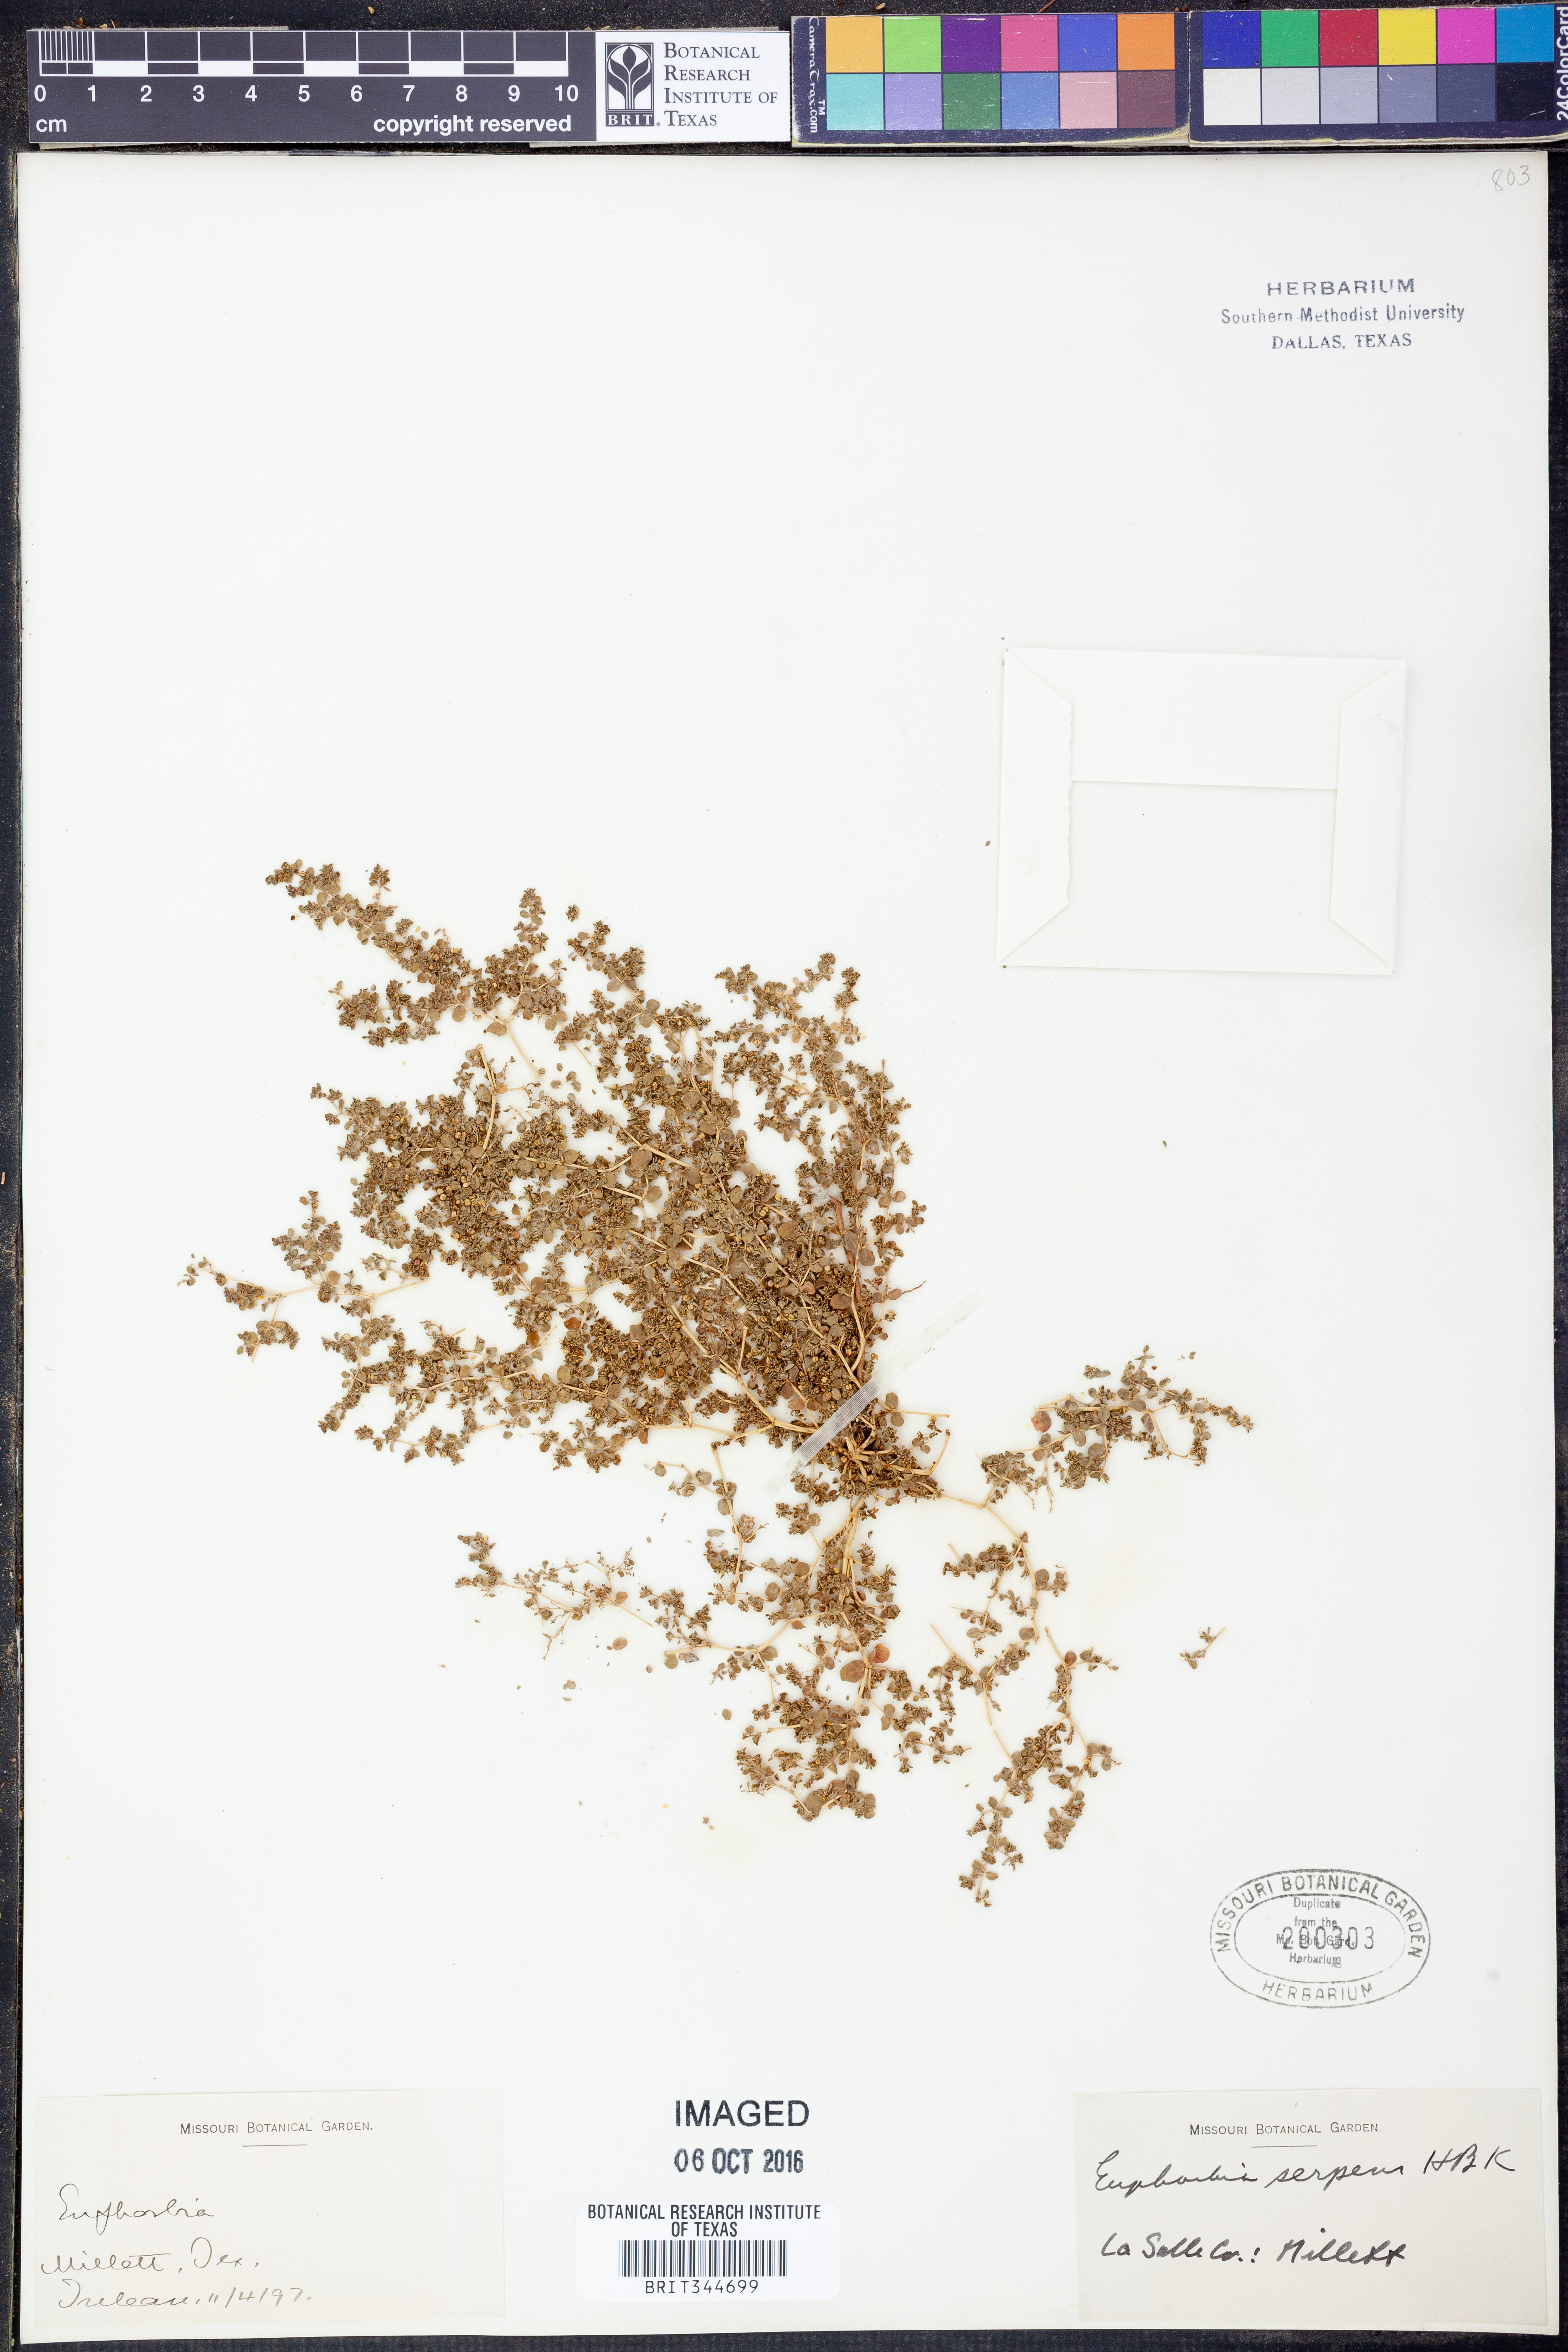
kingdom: Plantae
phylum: Tracheophyta
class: Magnoliopsida
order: Malpighiales
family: Euphorbiaceae
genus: Euphorbia
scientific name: Euphorbia serpens
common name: Matted sandmat
